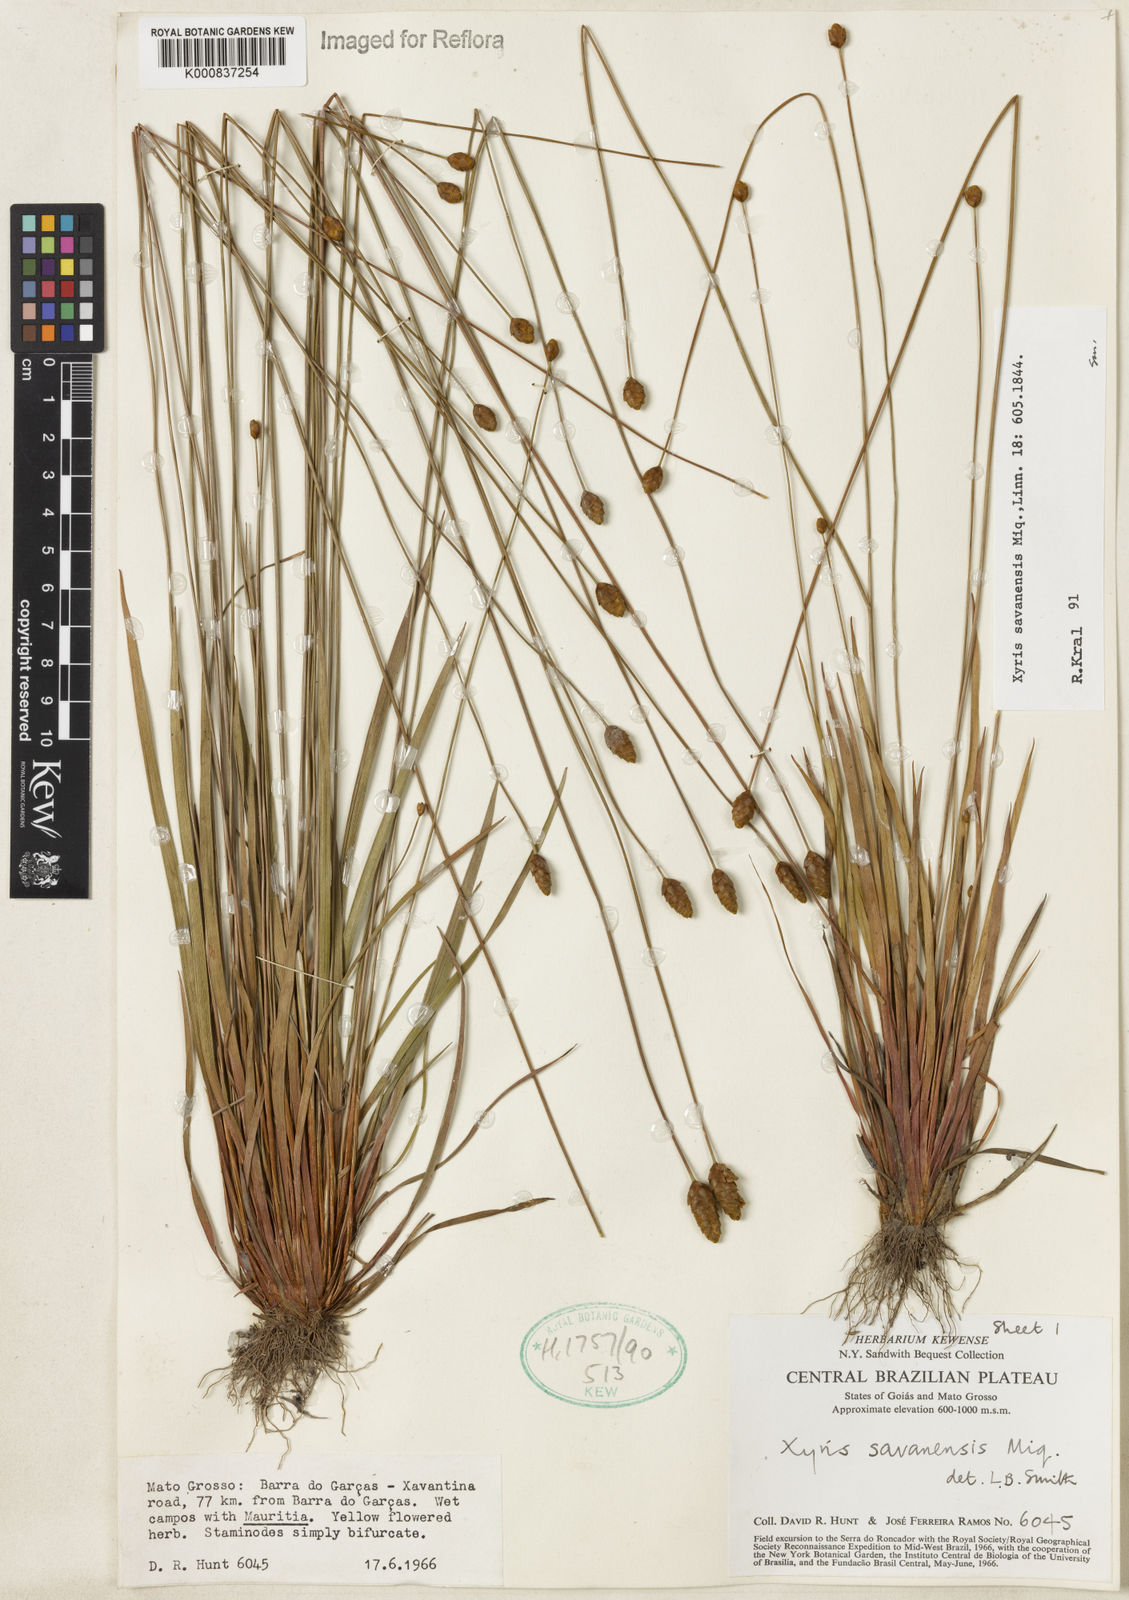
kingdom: Plantae
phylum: Tracheophyta
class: Liliopsida
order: Poales
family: Xyridaceae
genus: Xyris
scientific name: Xyris savanensis
